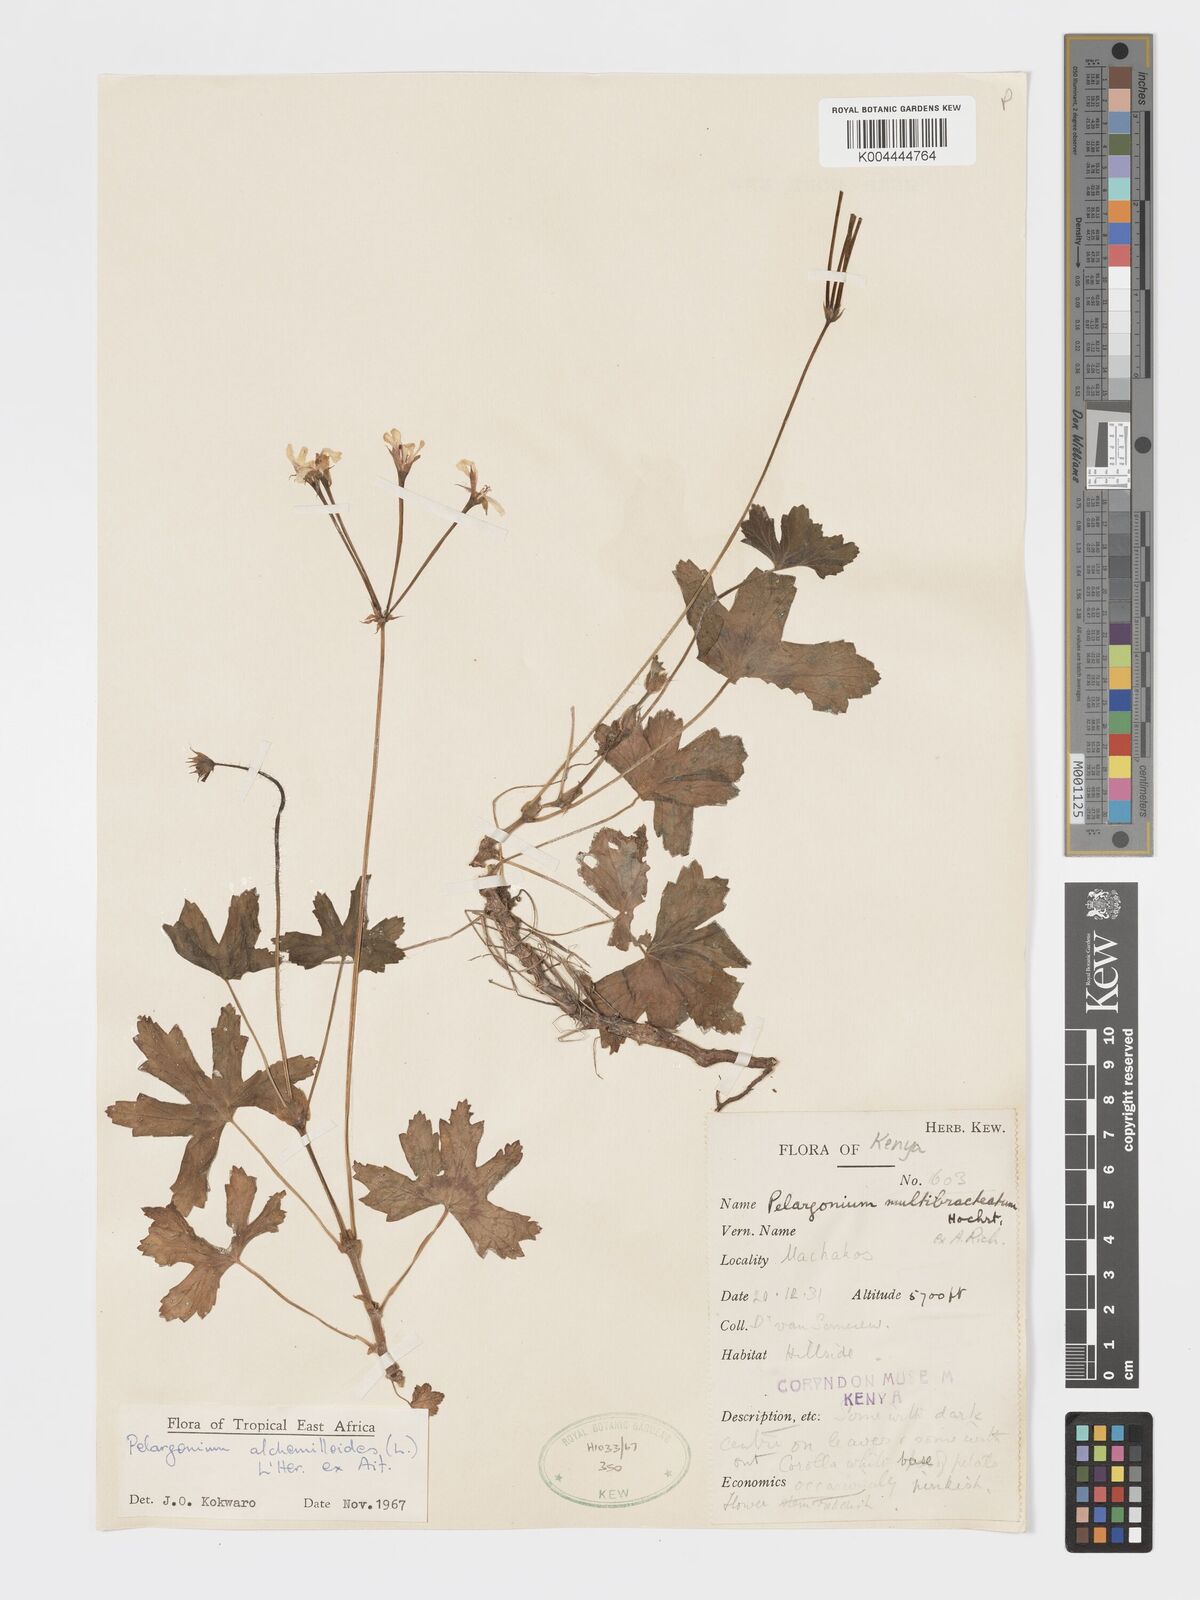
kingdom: Plantae
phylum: Tracheophyta
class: Magnoliopsida
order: Geraniales
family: Geraniaceae
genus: Pelargonium
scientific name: Pelargonium alchemilloides
